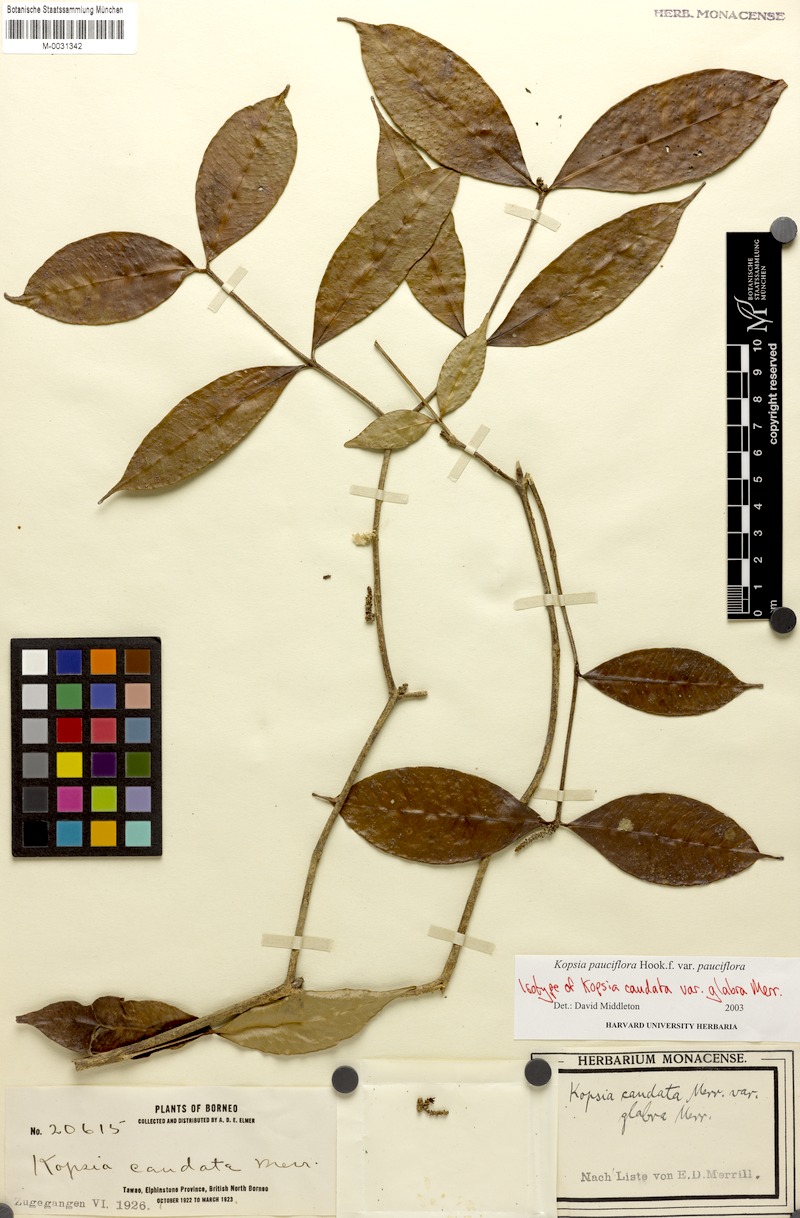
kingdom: Plantae
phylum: Tracheophyta
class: Magnoliopsida
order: Gentianales
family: Apocynaceae
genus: Kopsia
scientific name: Kopsia pauciflora
